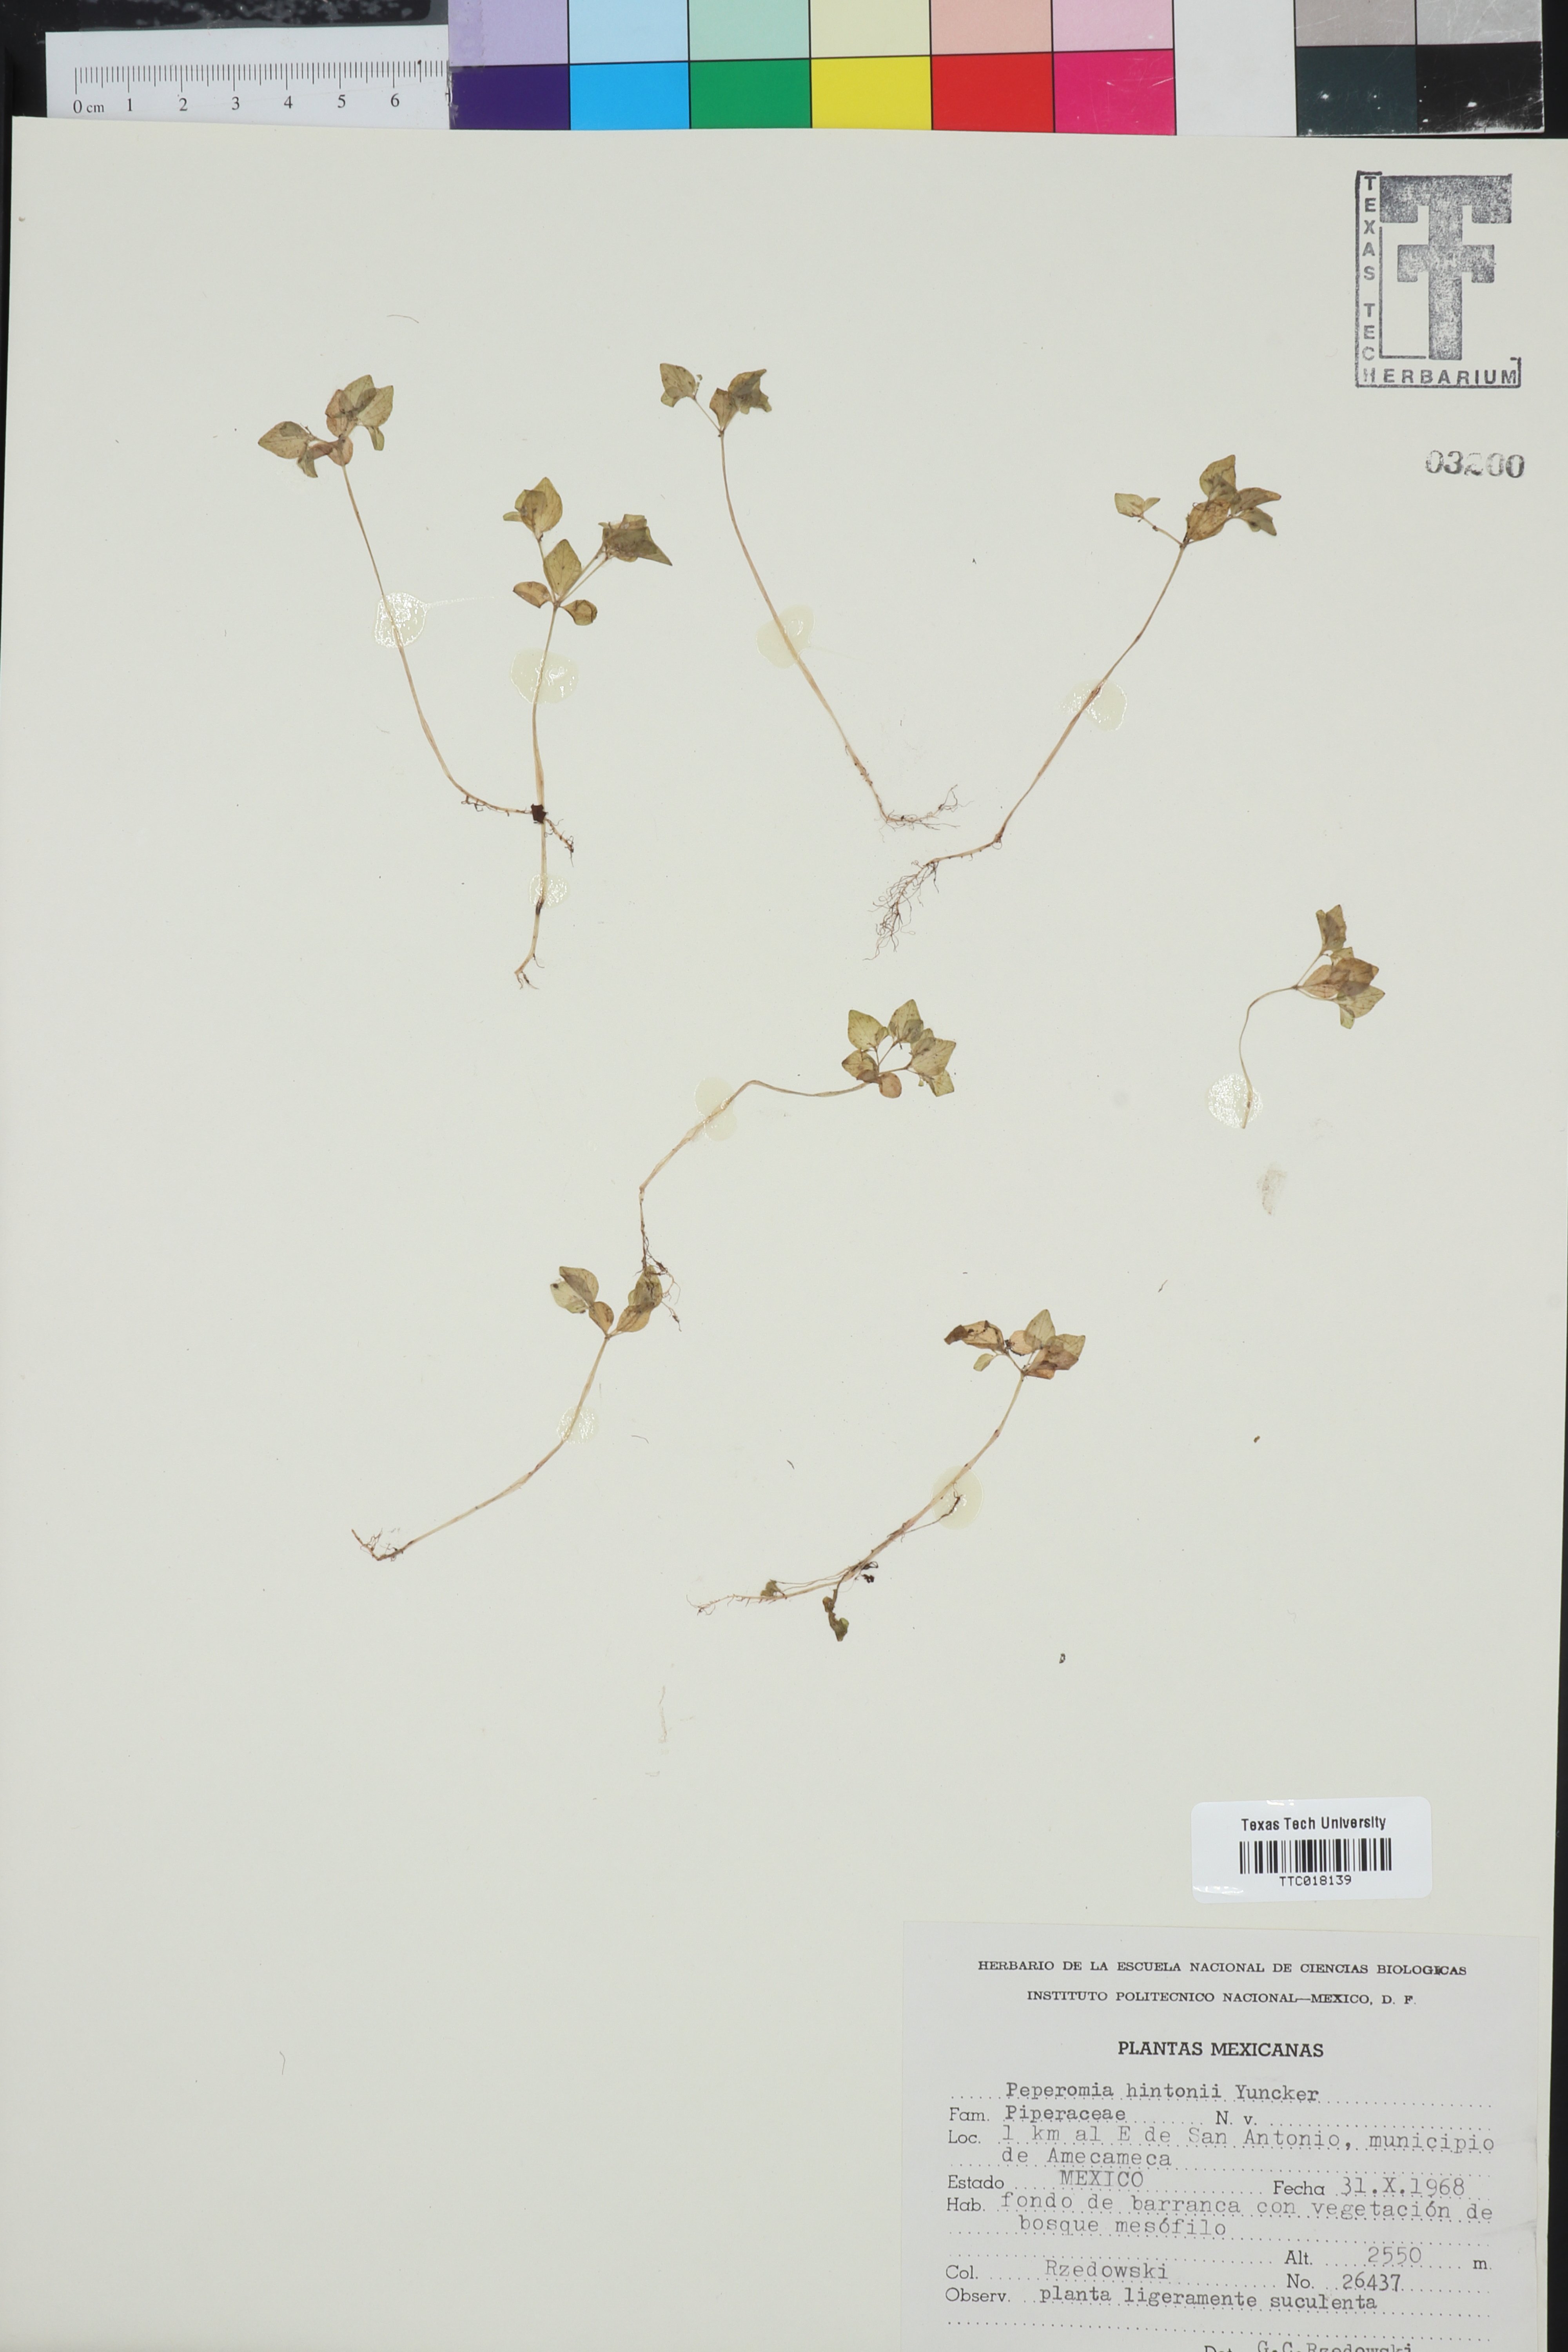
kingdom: Plantae
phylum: Tracheophyta
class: Magnoliopsida
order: Piperales
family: Piperaceae
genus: Peperomia
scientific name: Peperomia hintonii
